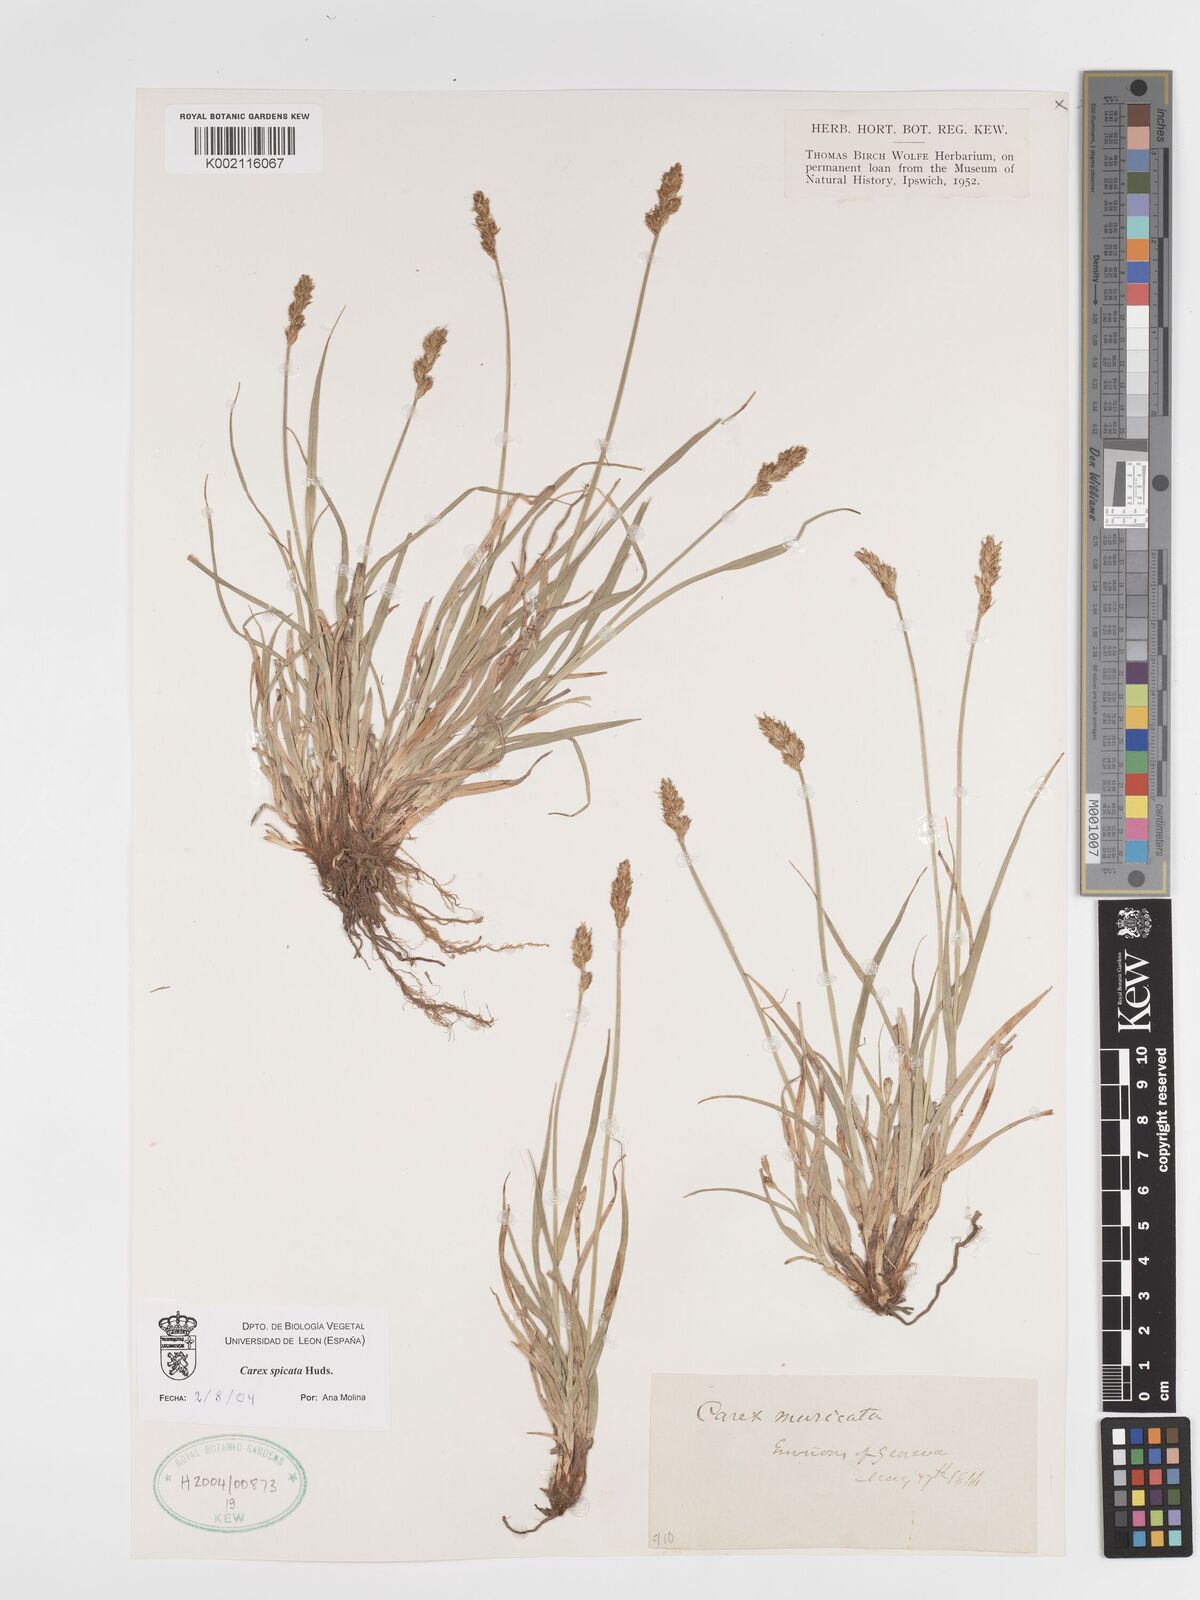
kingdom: Plantae
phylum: Tracheophyta
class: Liliopsida
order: Poales
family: Cyperaceae
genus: Carex
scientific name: Carex spicata
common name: Spiked sedge
